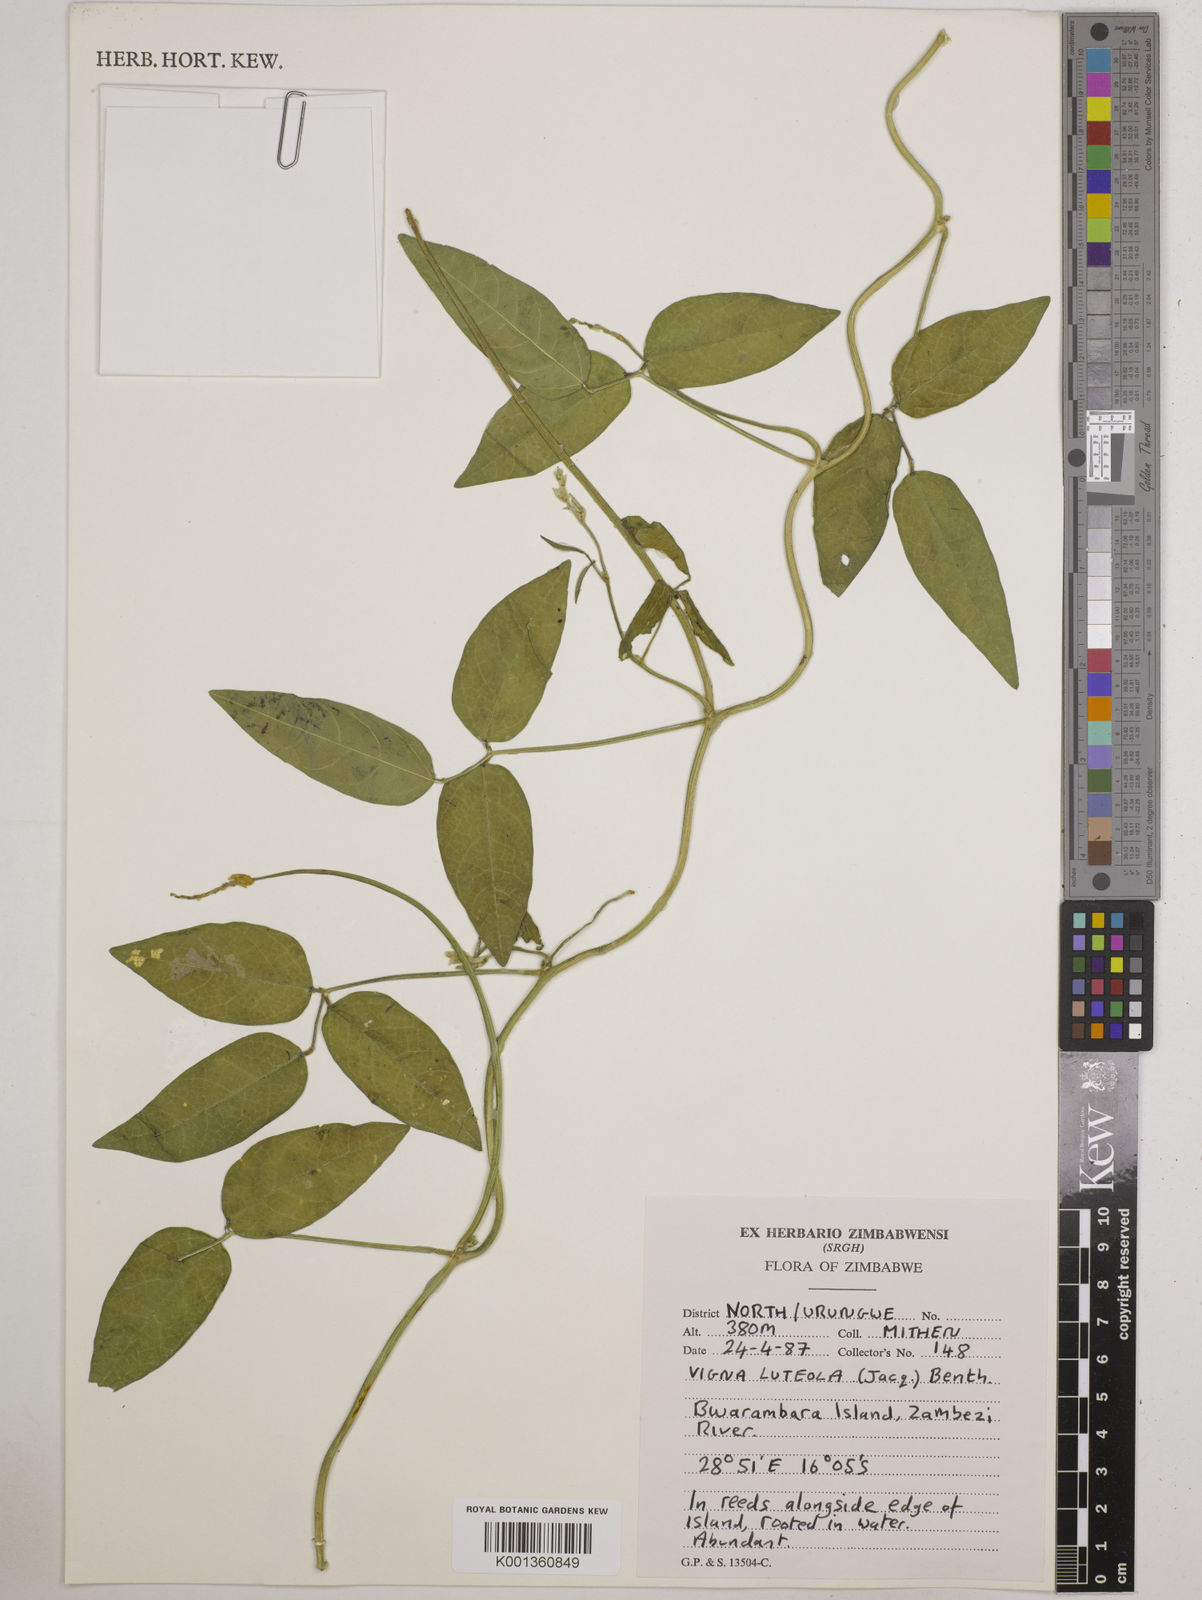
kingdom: Plantae
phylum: Tracheophyta
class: Magnoliopsida
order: Fabales
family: Fabaceae
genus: Vigna
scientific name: Vigna luteola
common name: Hairypod cowpea
